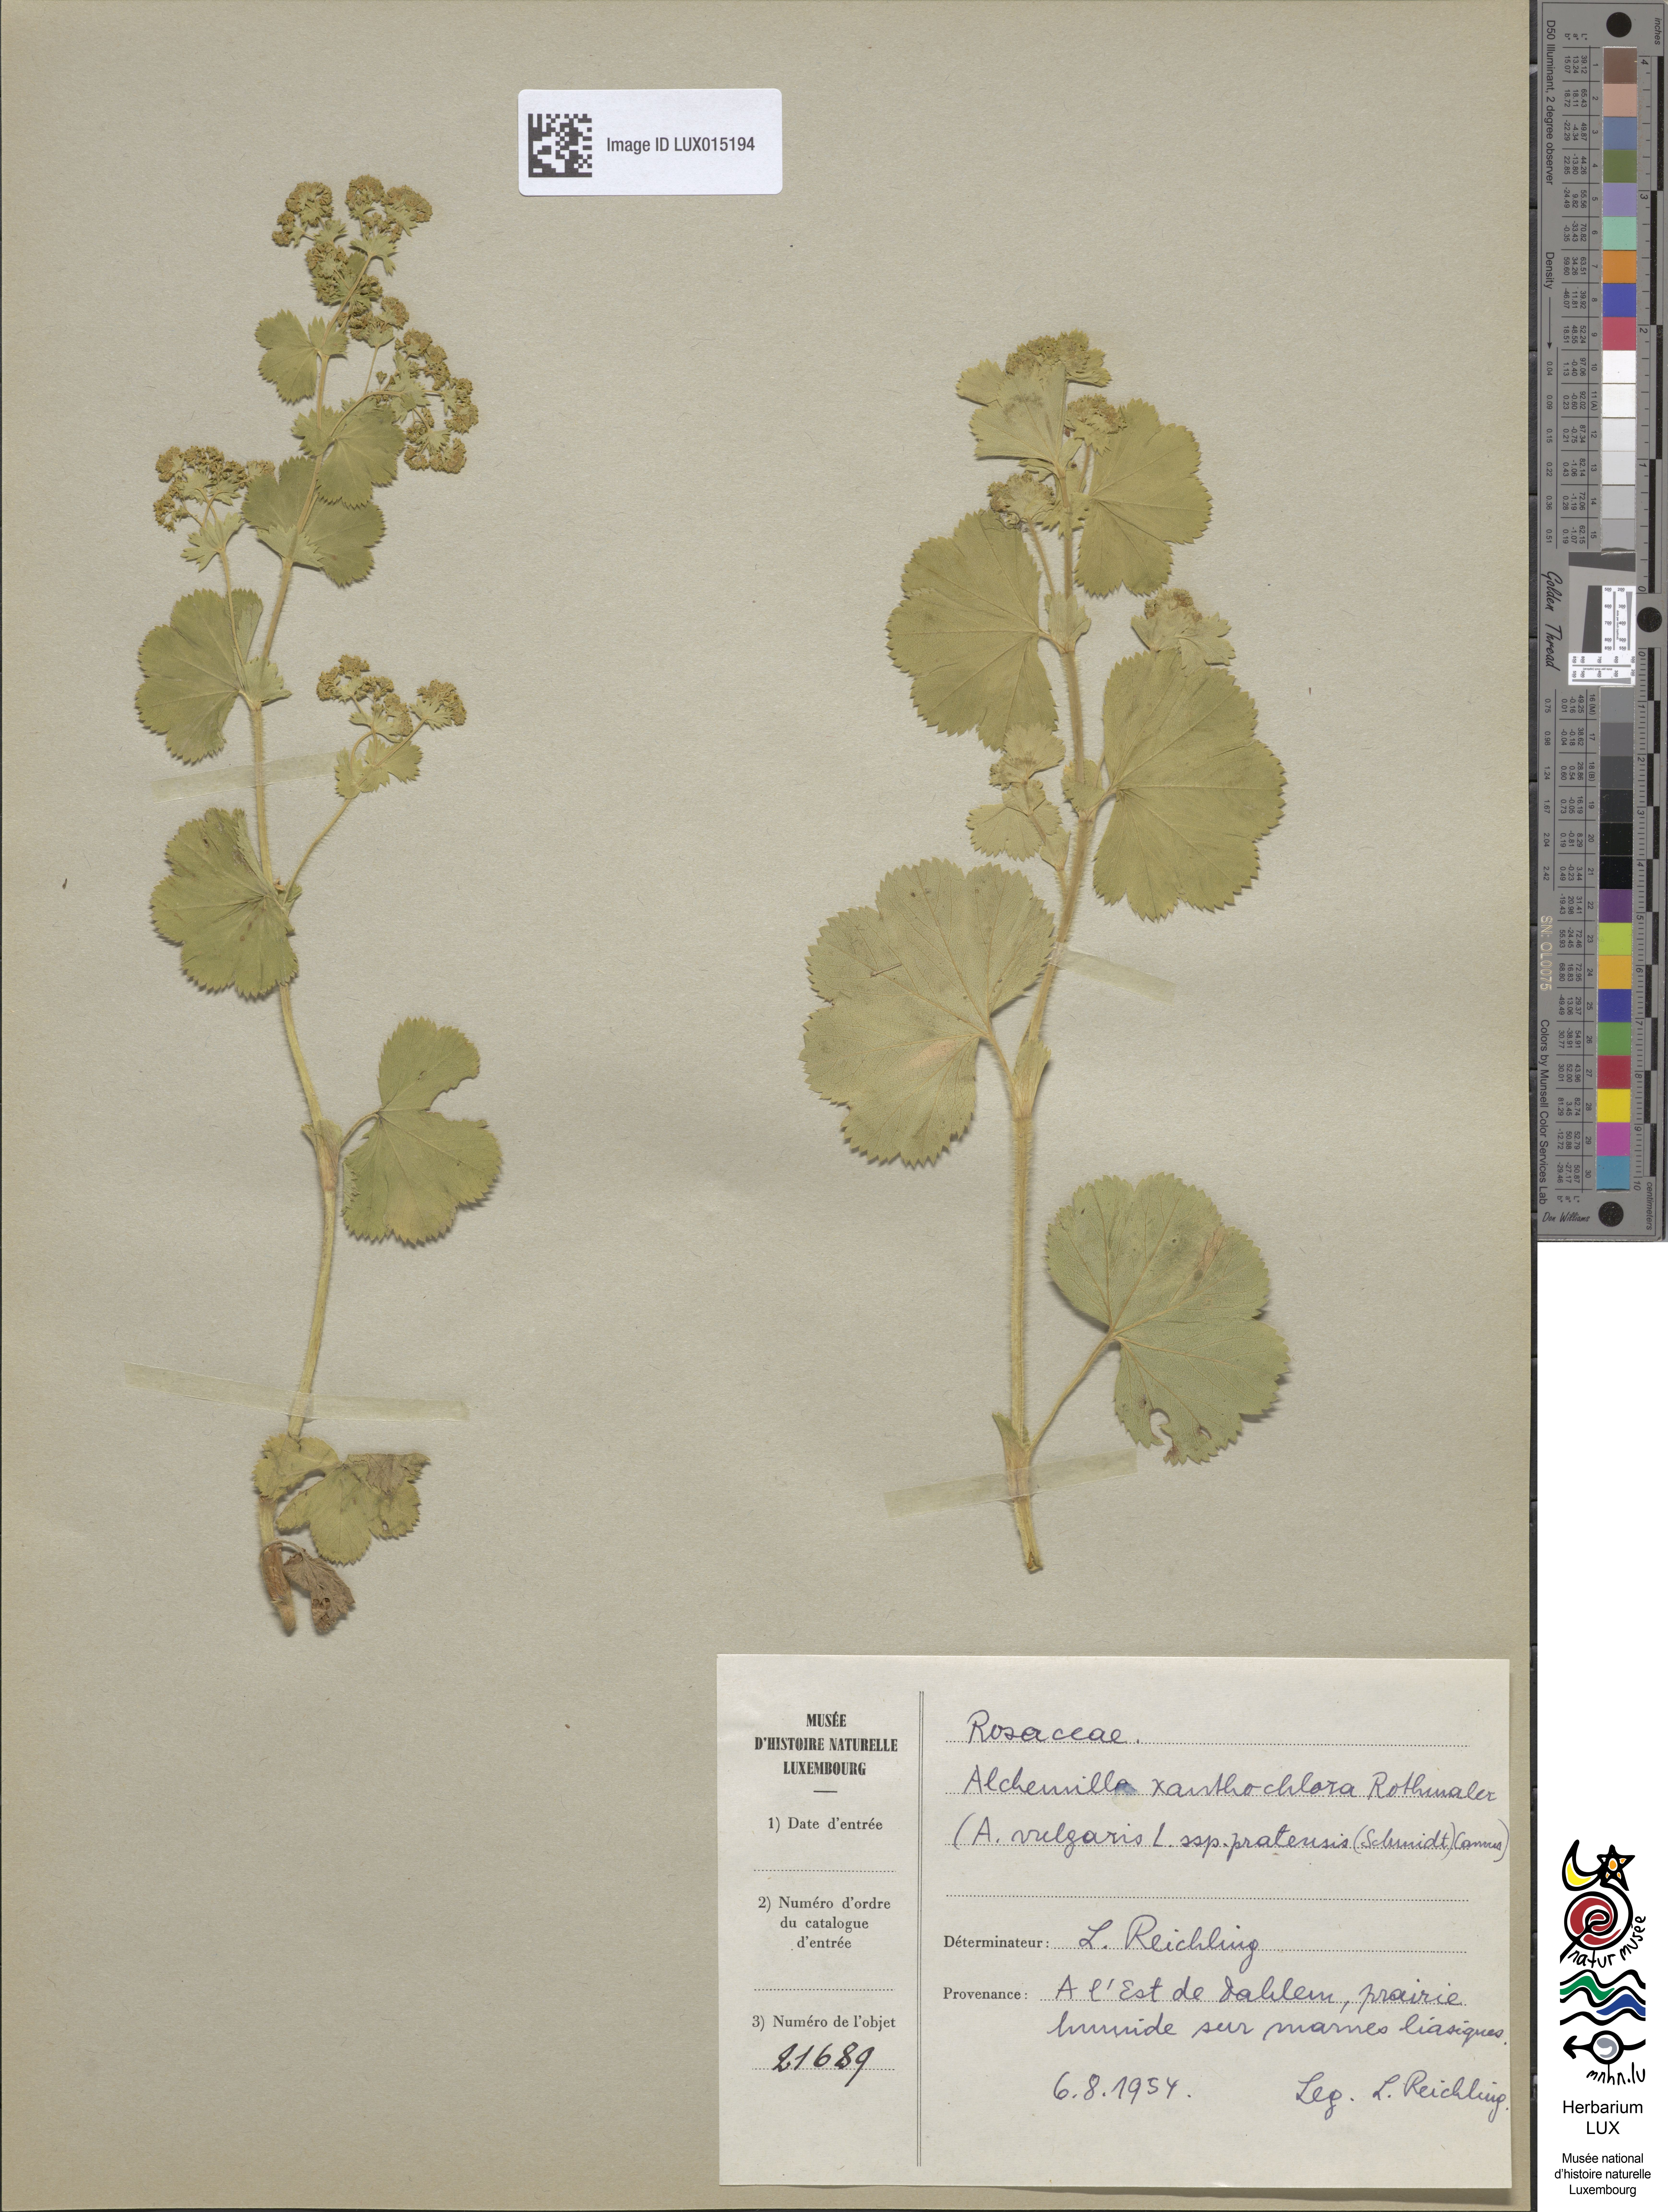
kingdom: Plantae
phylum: Tracheophyta
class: Magnoliopsida
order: Rosales
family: Rosaceae
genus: Alchemilla
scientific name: Alchemilla xanthochlora
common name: Intermediate lady's-mantle
